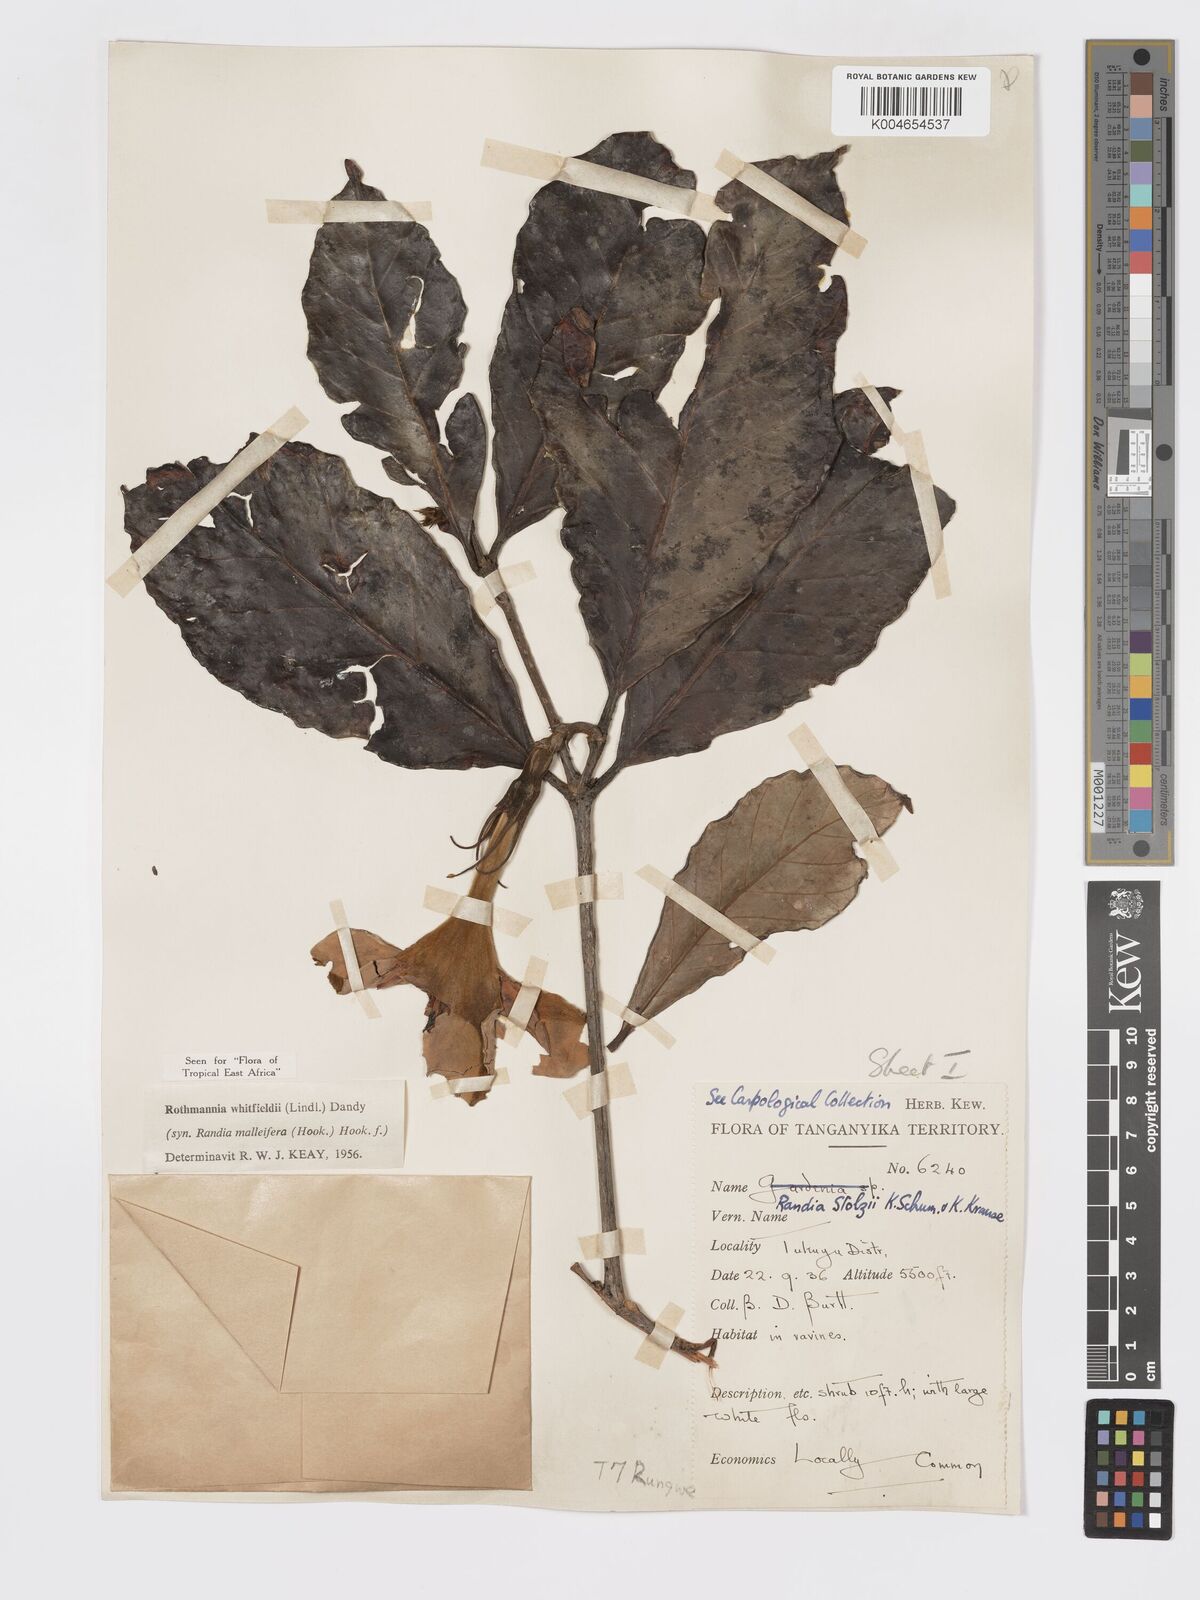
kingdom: Plantae
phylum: Tracheophyta
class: Magnoliopsida
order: Gentianales
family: Rubiaceae
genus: Rothmannia
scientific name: Rothmannia whitfieldii
